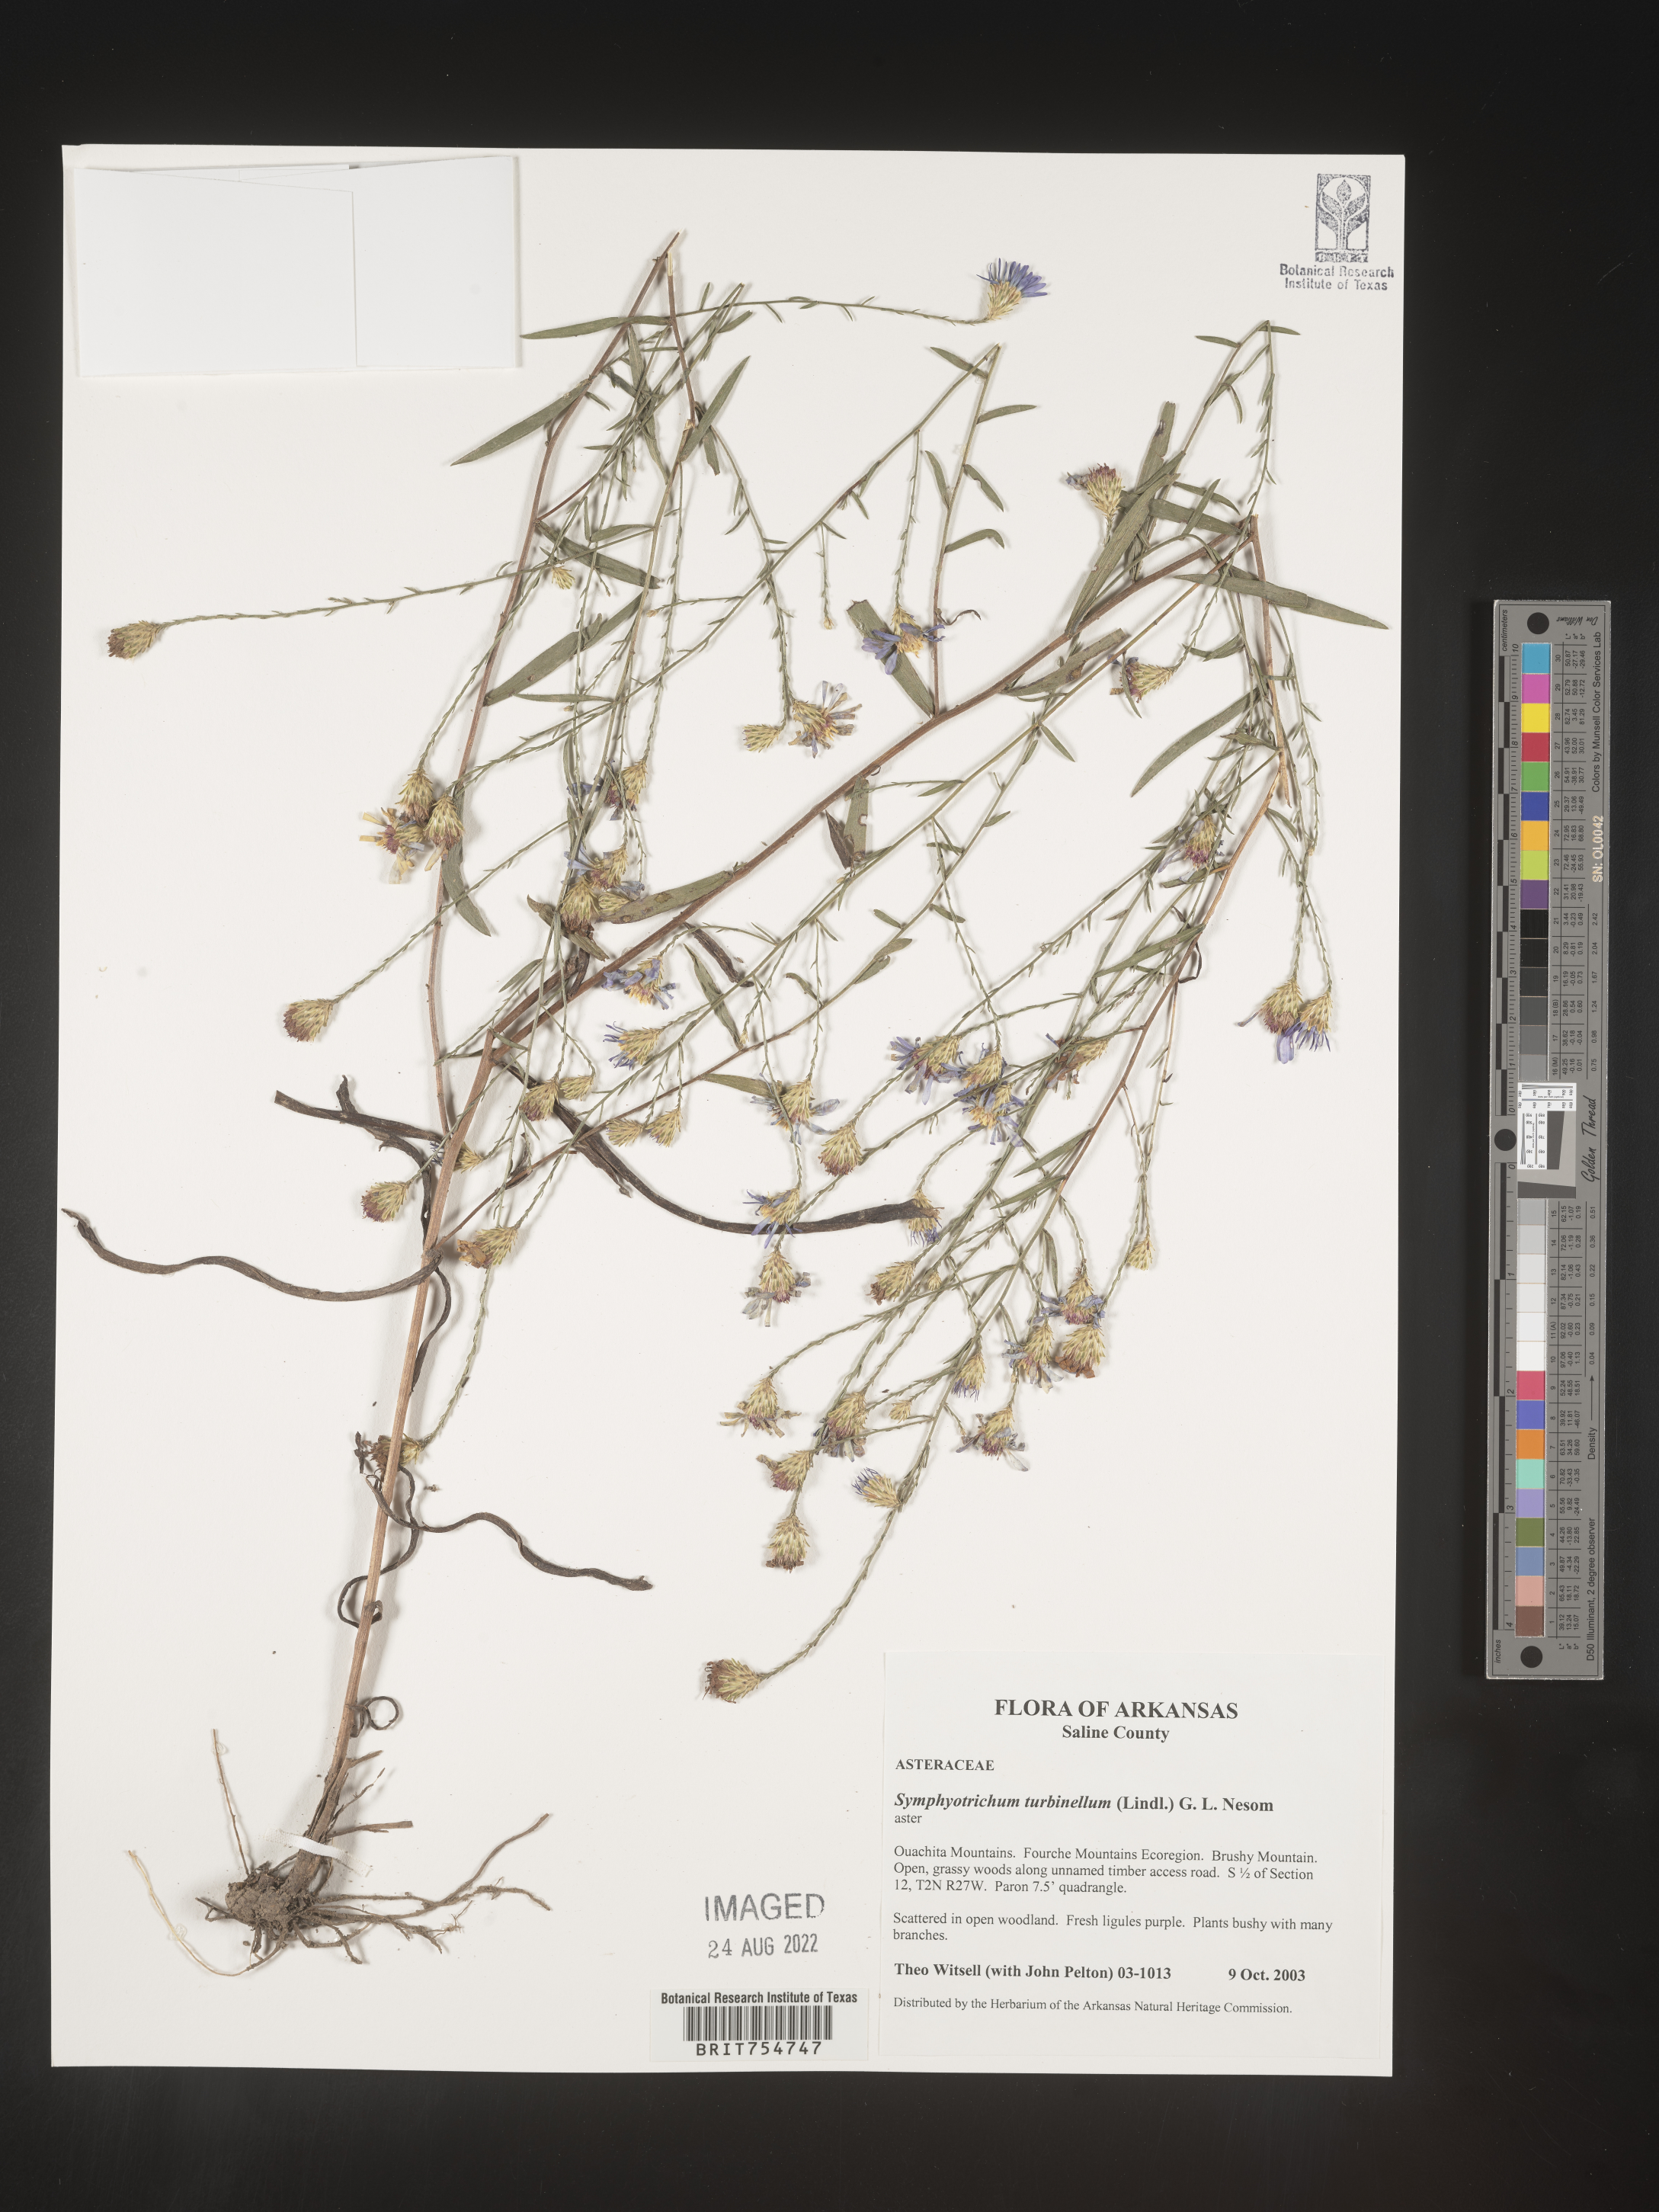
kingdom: Plantae
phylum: Tracheophyta
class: Magnoliopsida
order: Asterales
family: Asteraceae
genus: Symphyotrichum
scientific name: Symphyotrichum turbinellum
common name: Prairie aster
